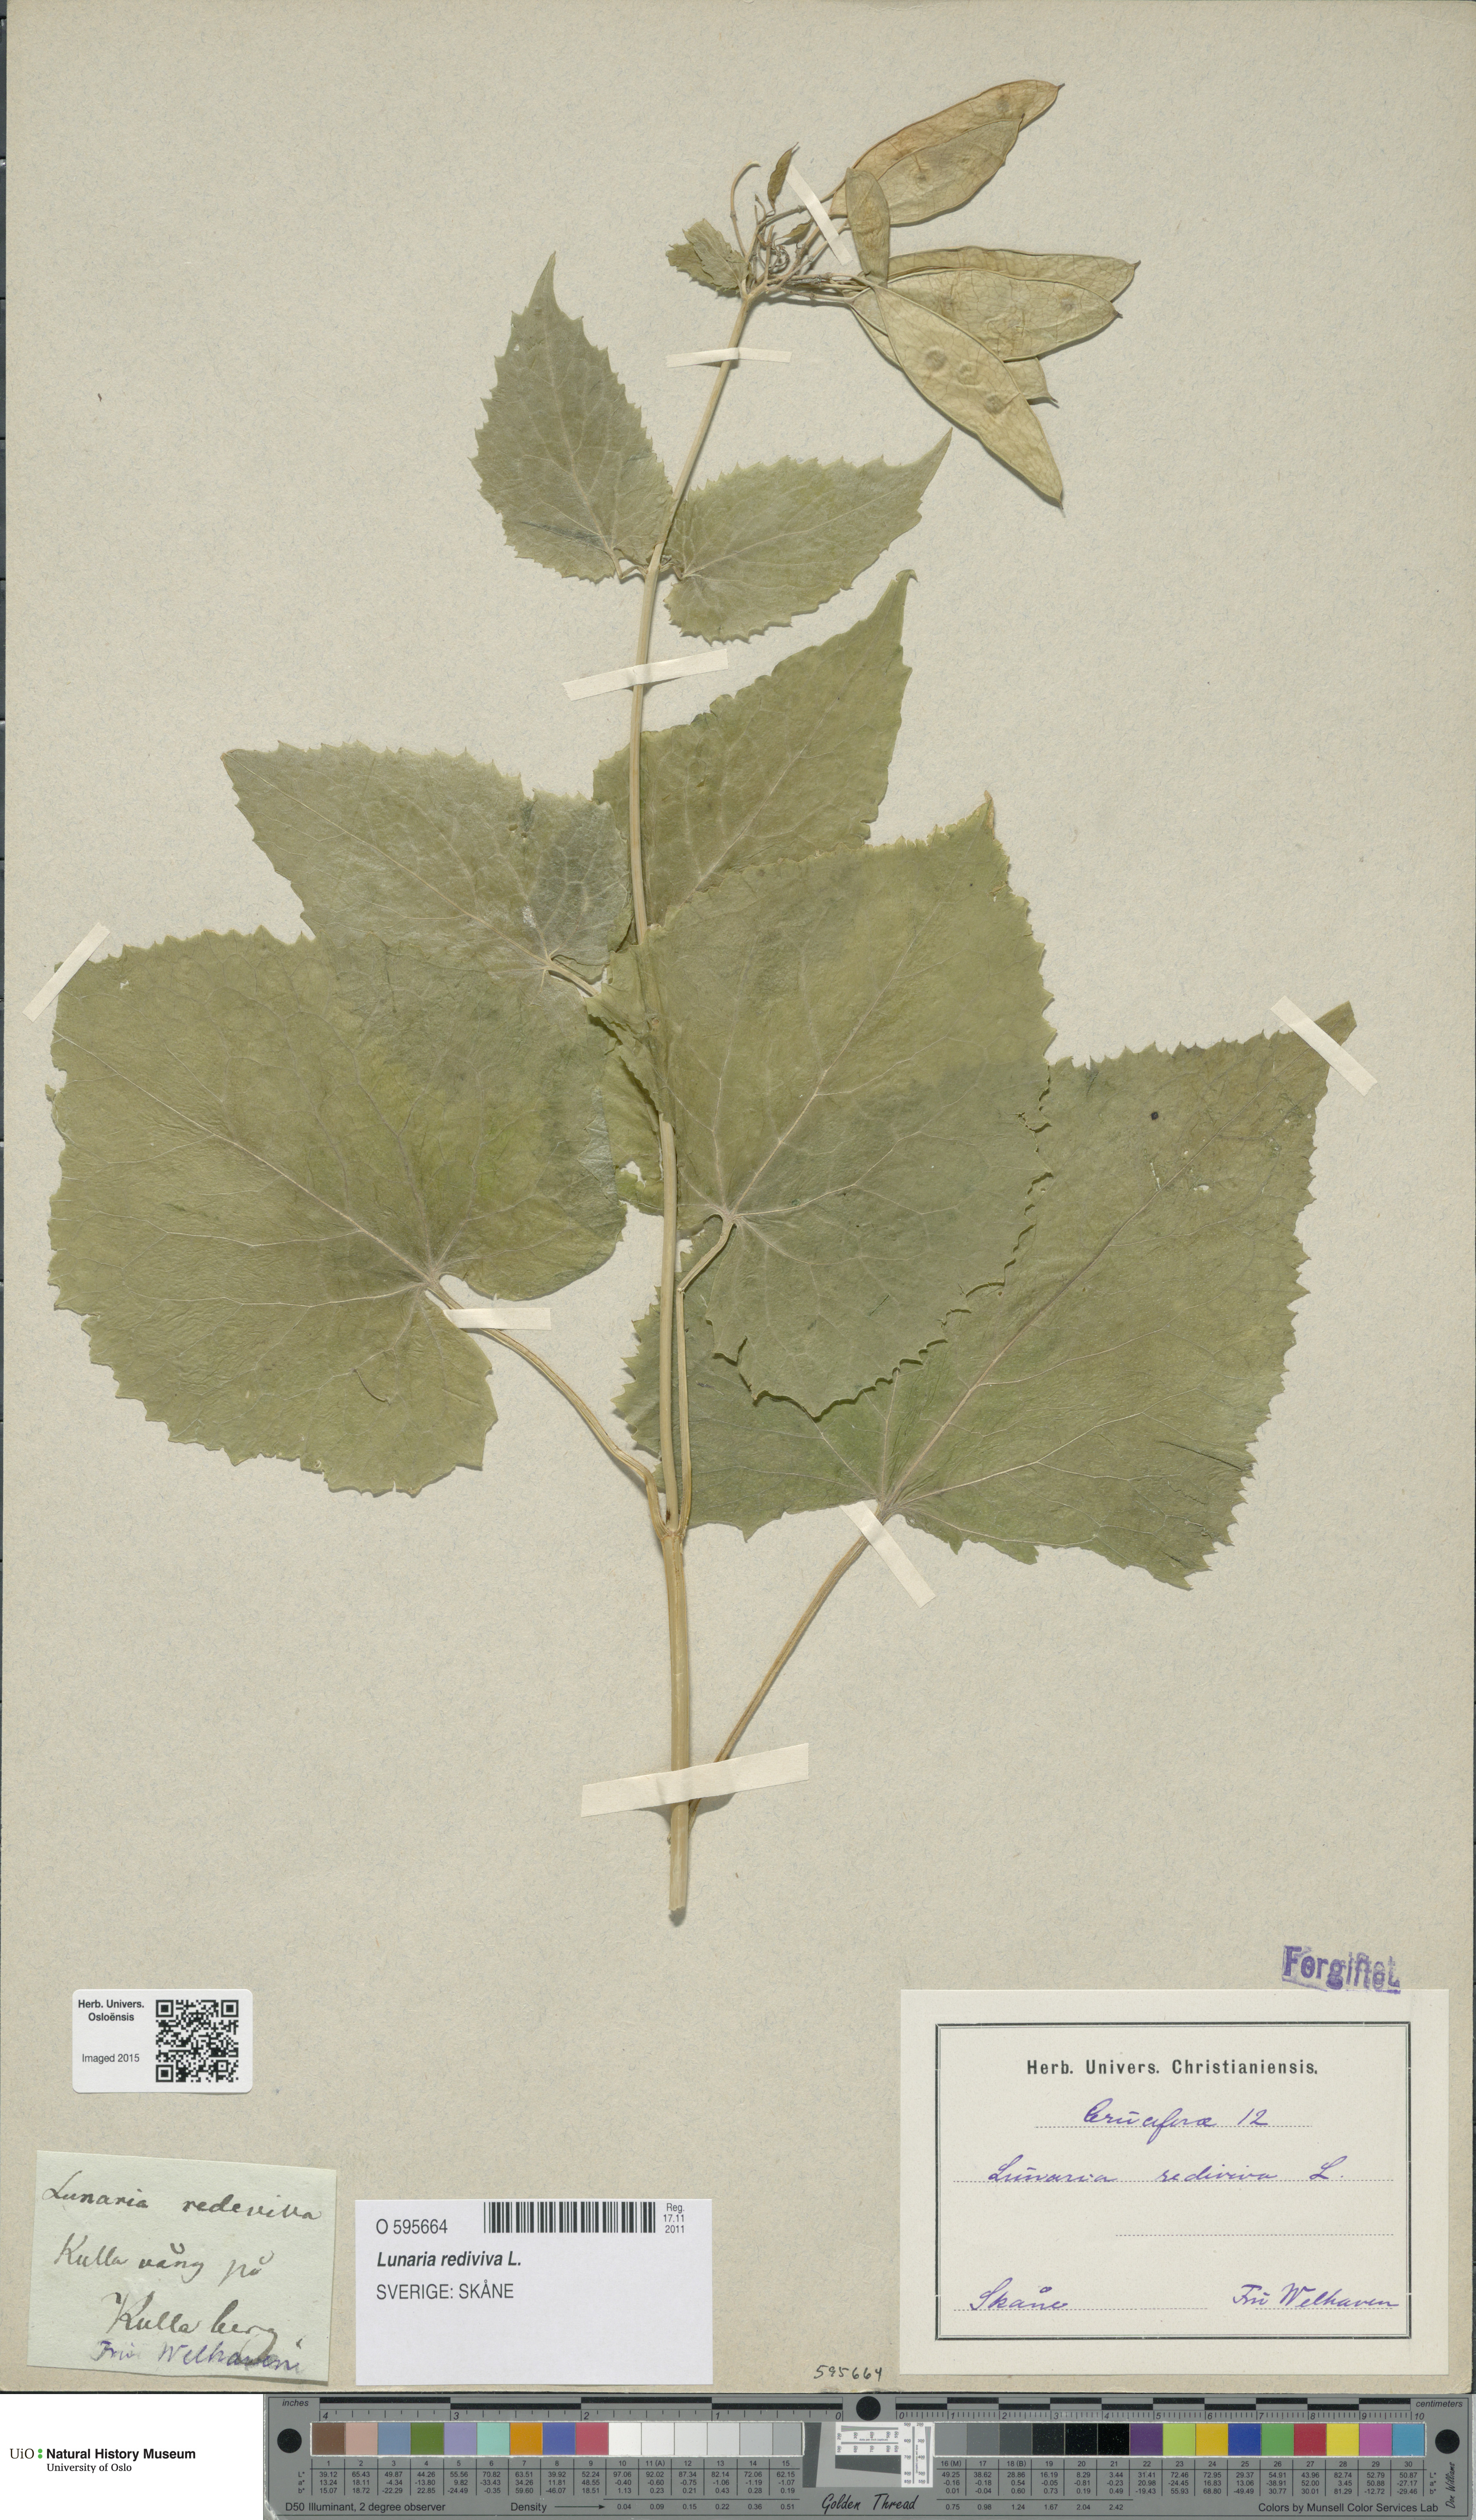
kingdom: Plantae
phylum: Tracheophyta
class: Magnoliopsida
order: Brassicales
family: Brassicaceae
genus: Lunaria
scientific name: Lunaria rediviva
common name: Perennial honesty
